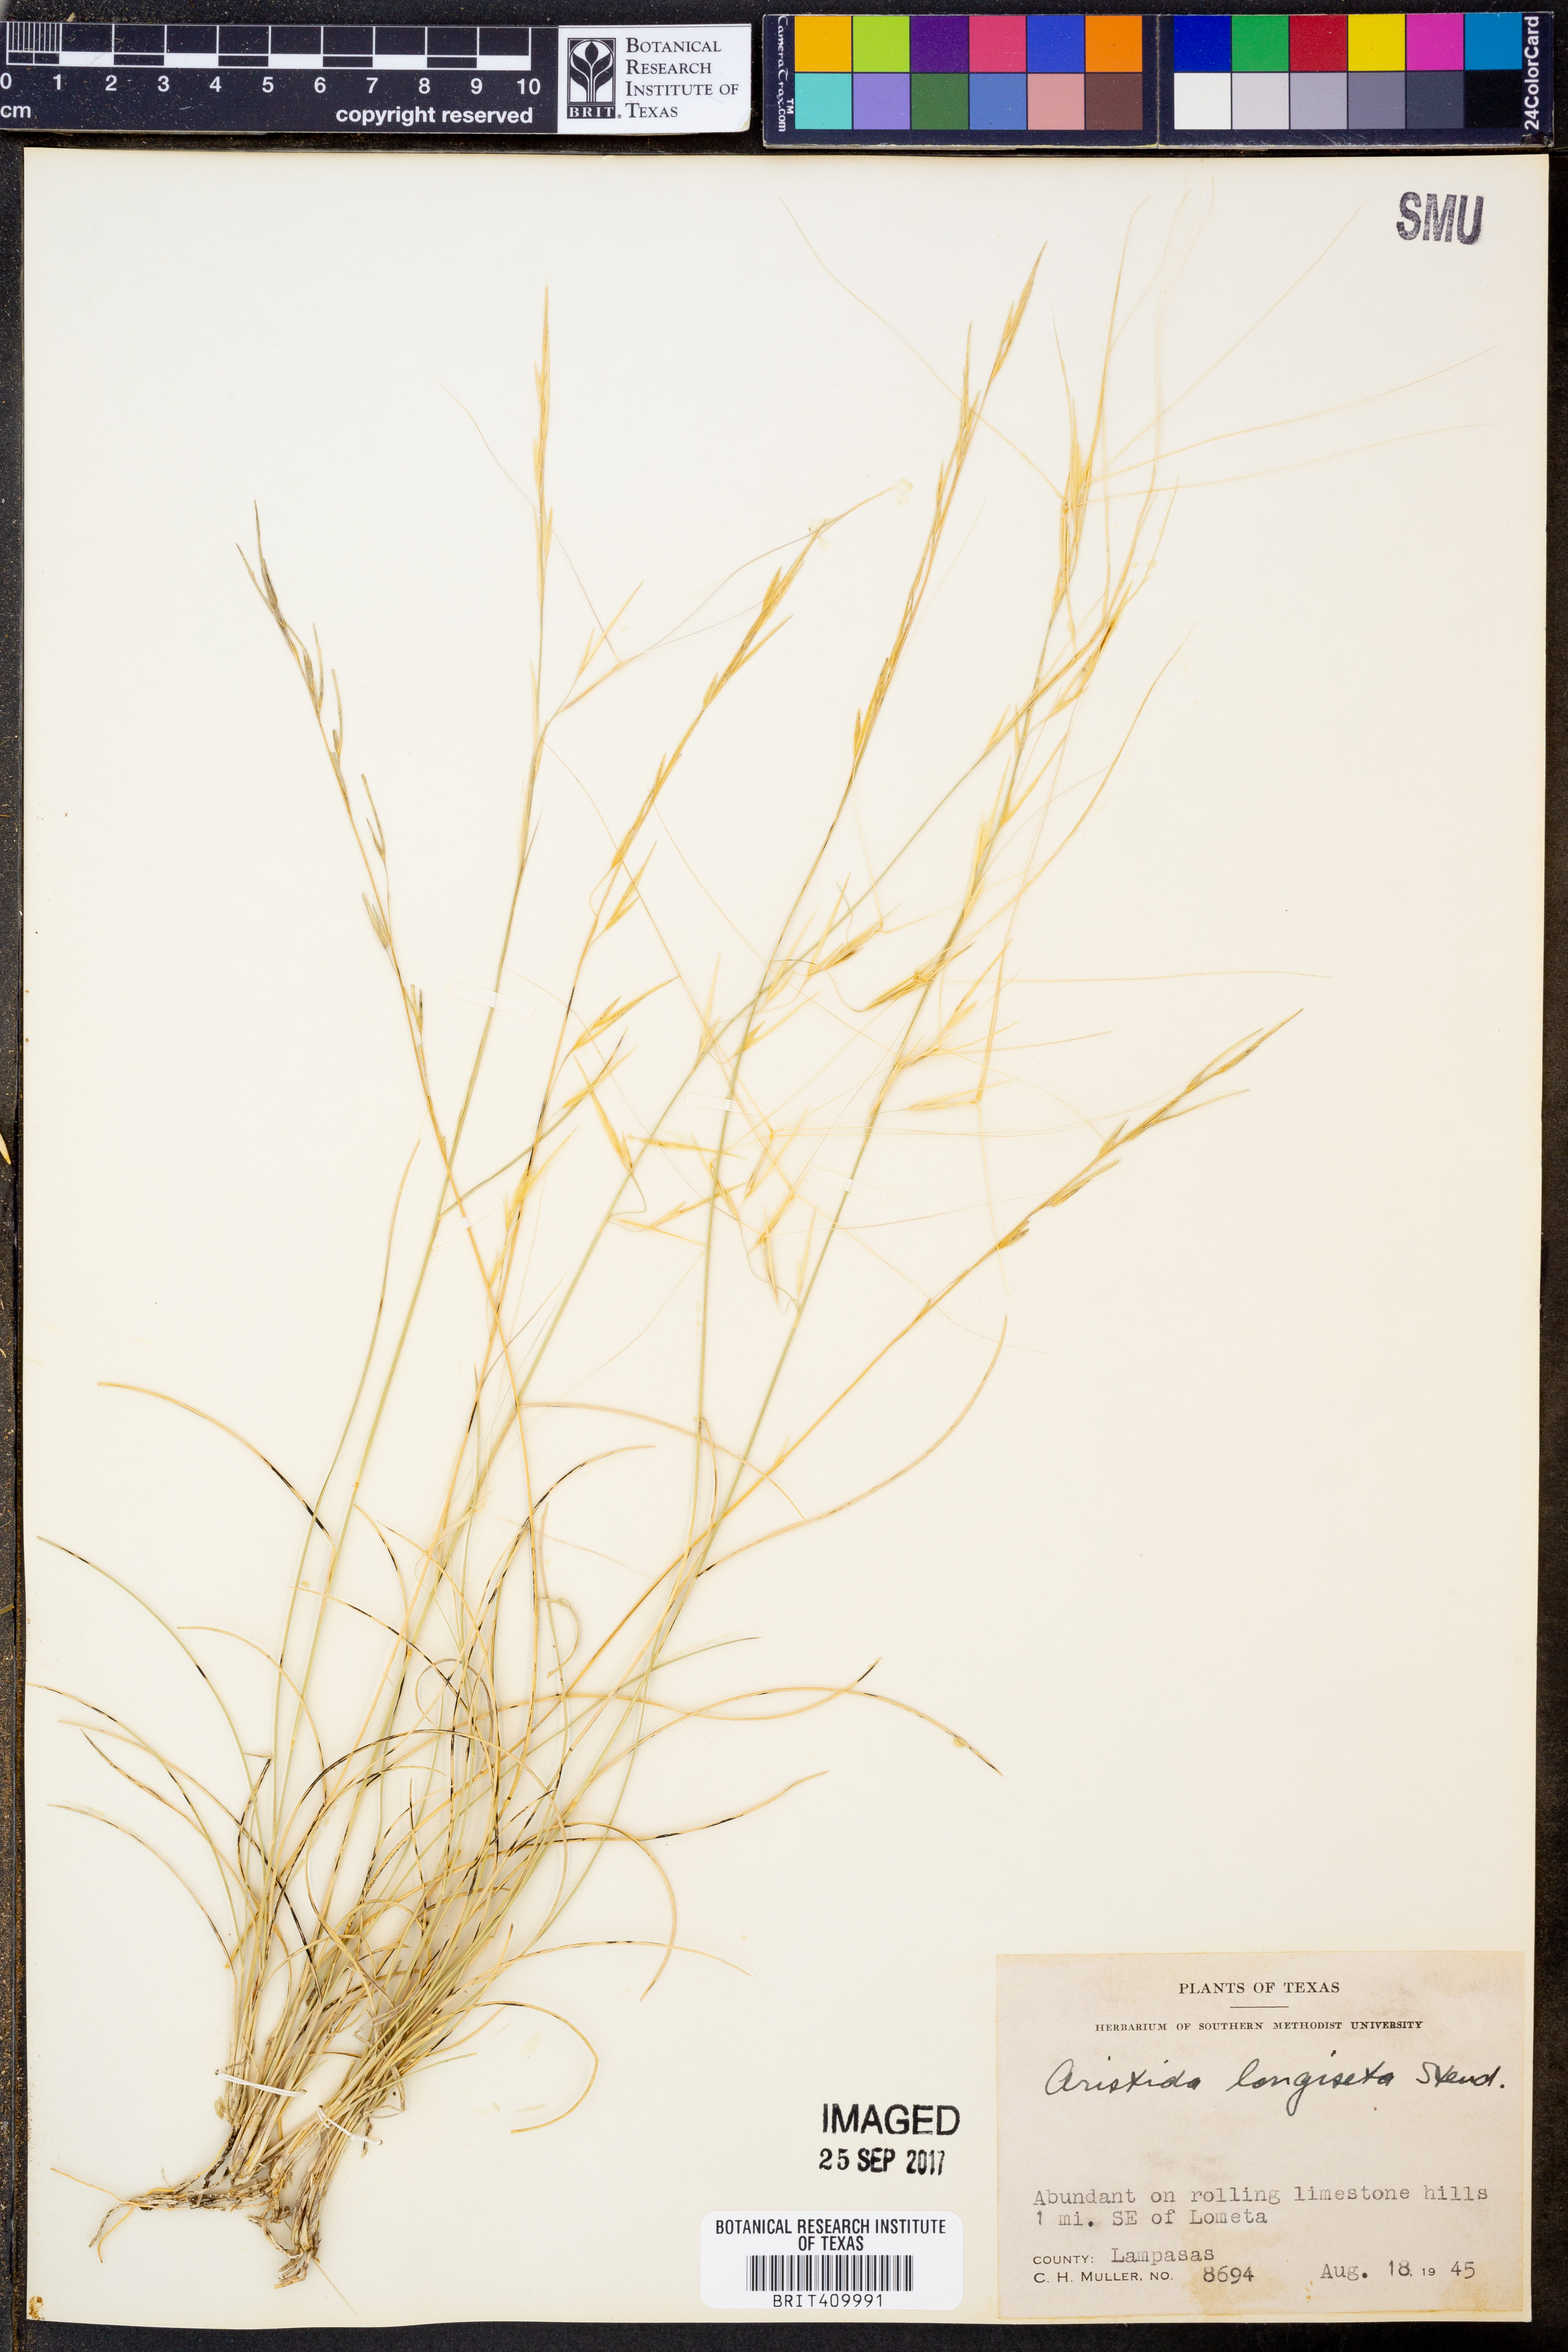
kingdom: Plantae
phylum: Tracheophyta
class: Liliopsida
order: Poales
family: Poaceae
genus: Aristida
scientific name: Aristida longiseta
